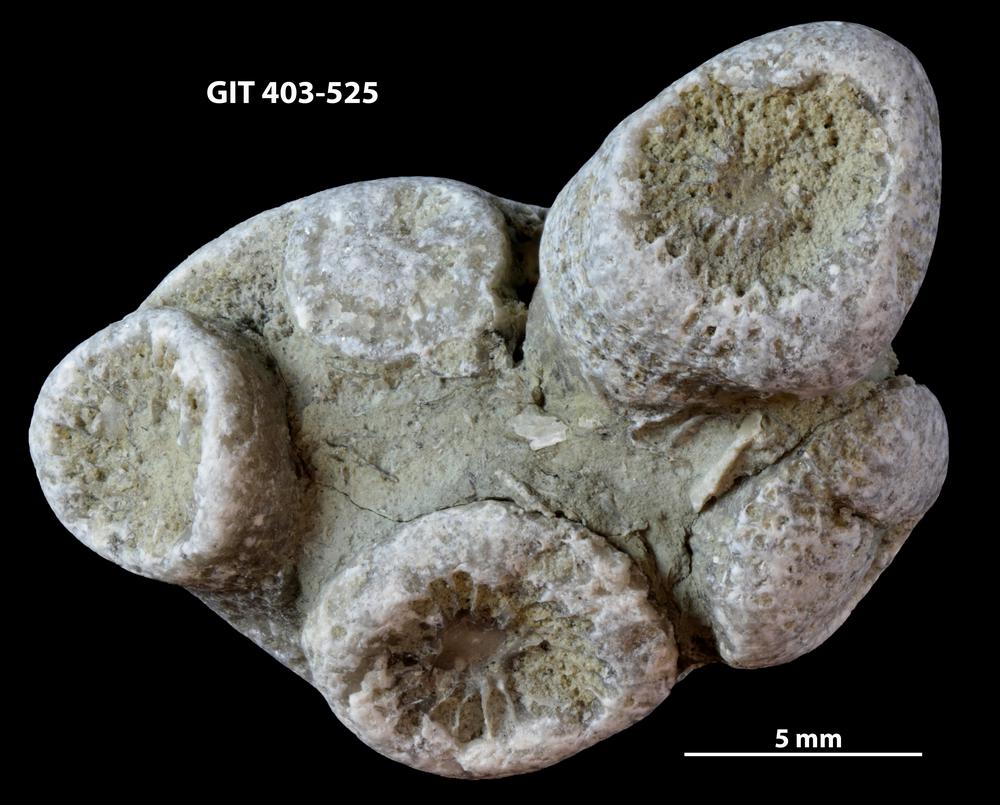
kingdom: Animalia
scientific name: Animalia
